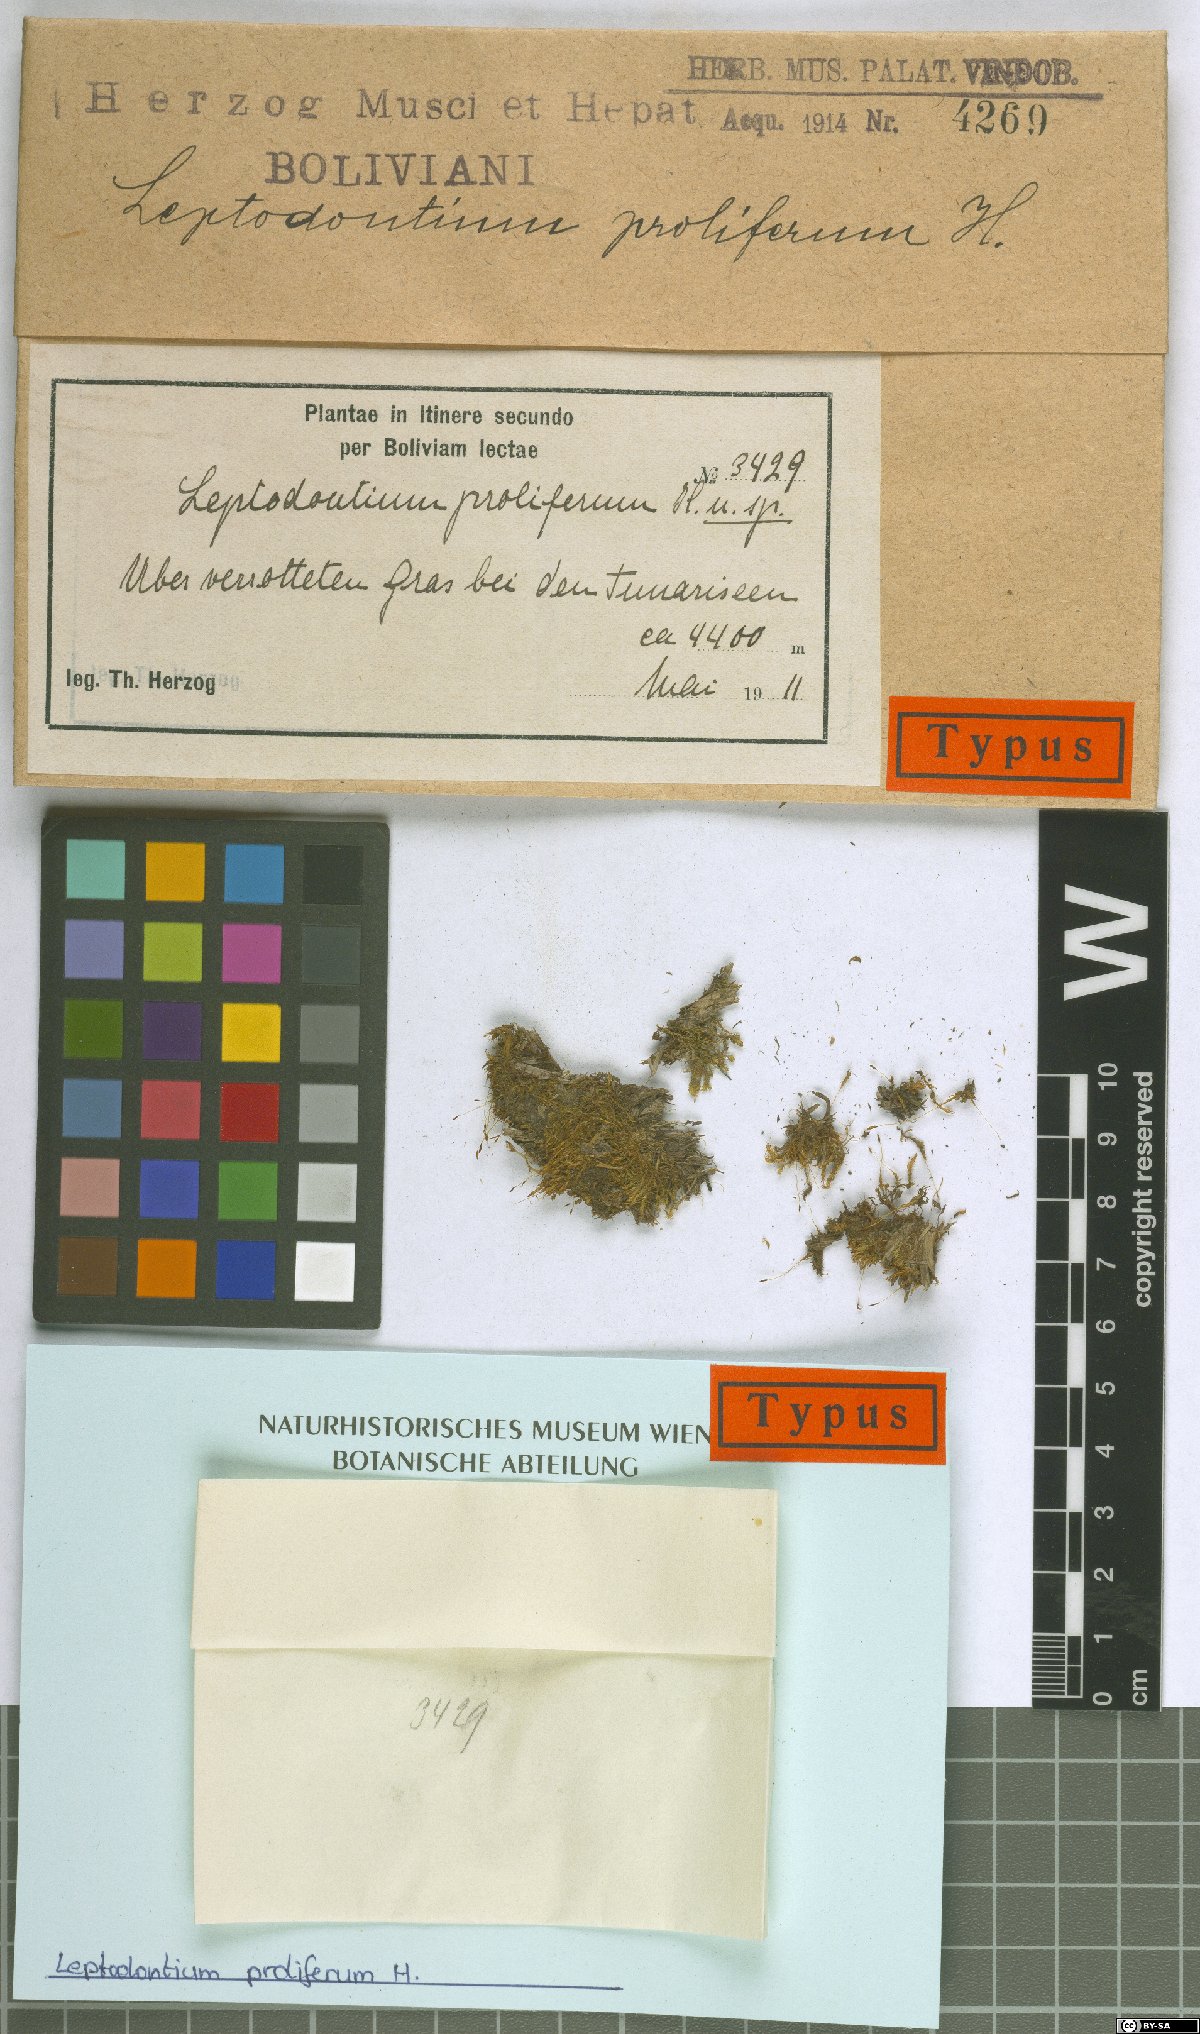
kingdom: Plantae
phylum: Bryophyta
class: Bryopsida
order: Pottiales
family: Pottiaceae
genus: Leptodontium
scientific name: Leptodontium proliferum
